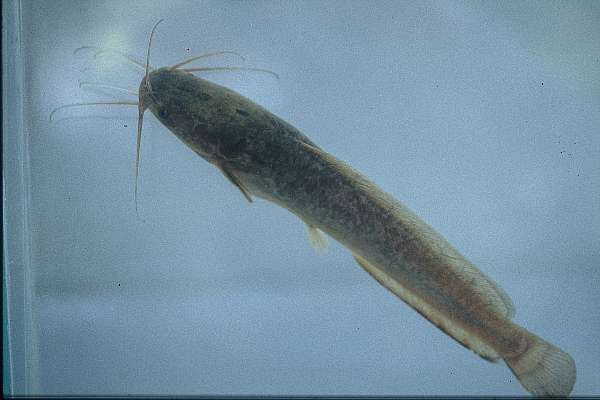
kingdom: Animalia
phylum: Chordata
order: Siluriformes
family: Clariidae
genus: Clarias
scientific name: Clarias ngamensis
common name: Blunt-toothed african catfish
